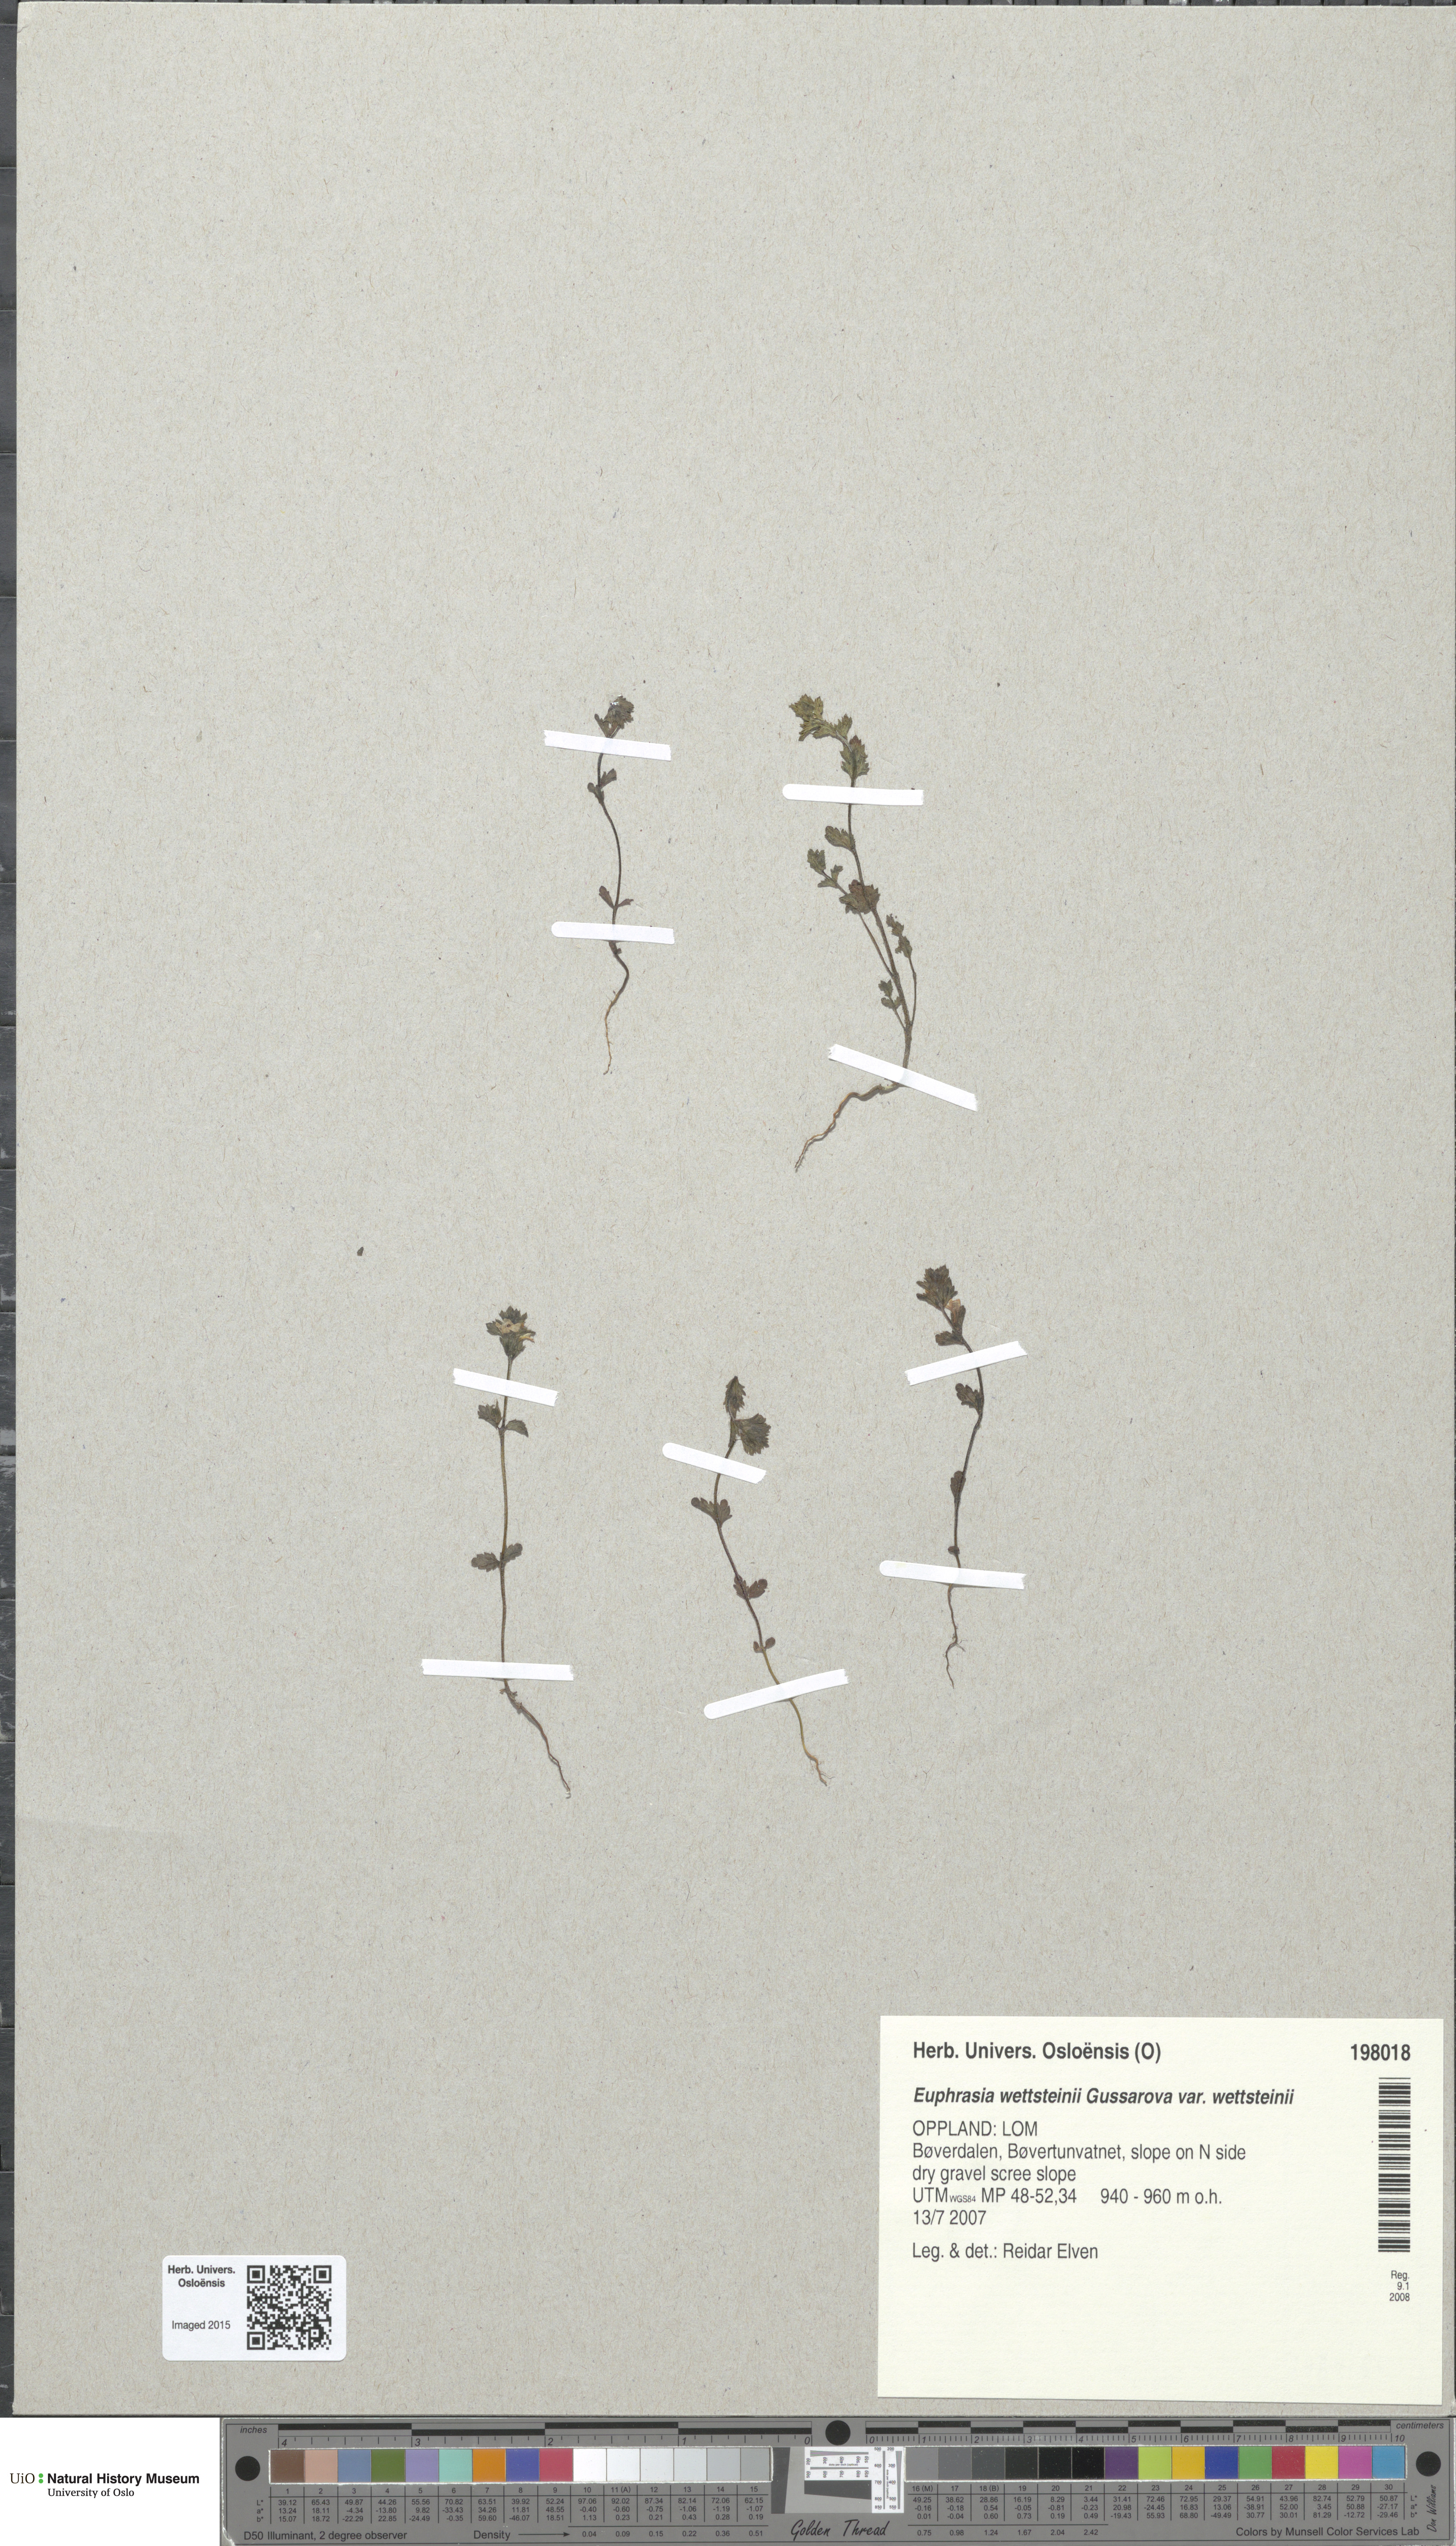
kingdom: Plantae
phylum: Tracheophyta
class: Magnoliopsida
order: Lamiales
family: Orobanchaceae
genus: Euphrasia
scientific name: Euphrasia wettsteinii
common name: Wettstein's eyebright
